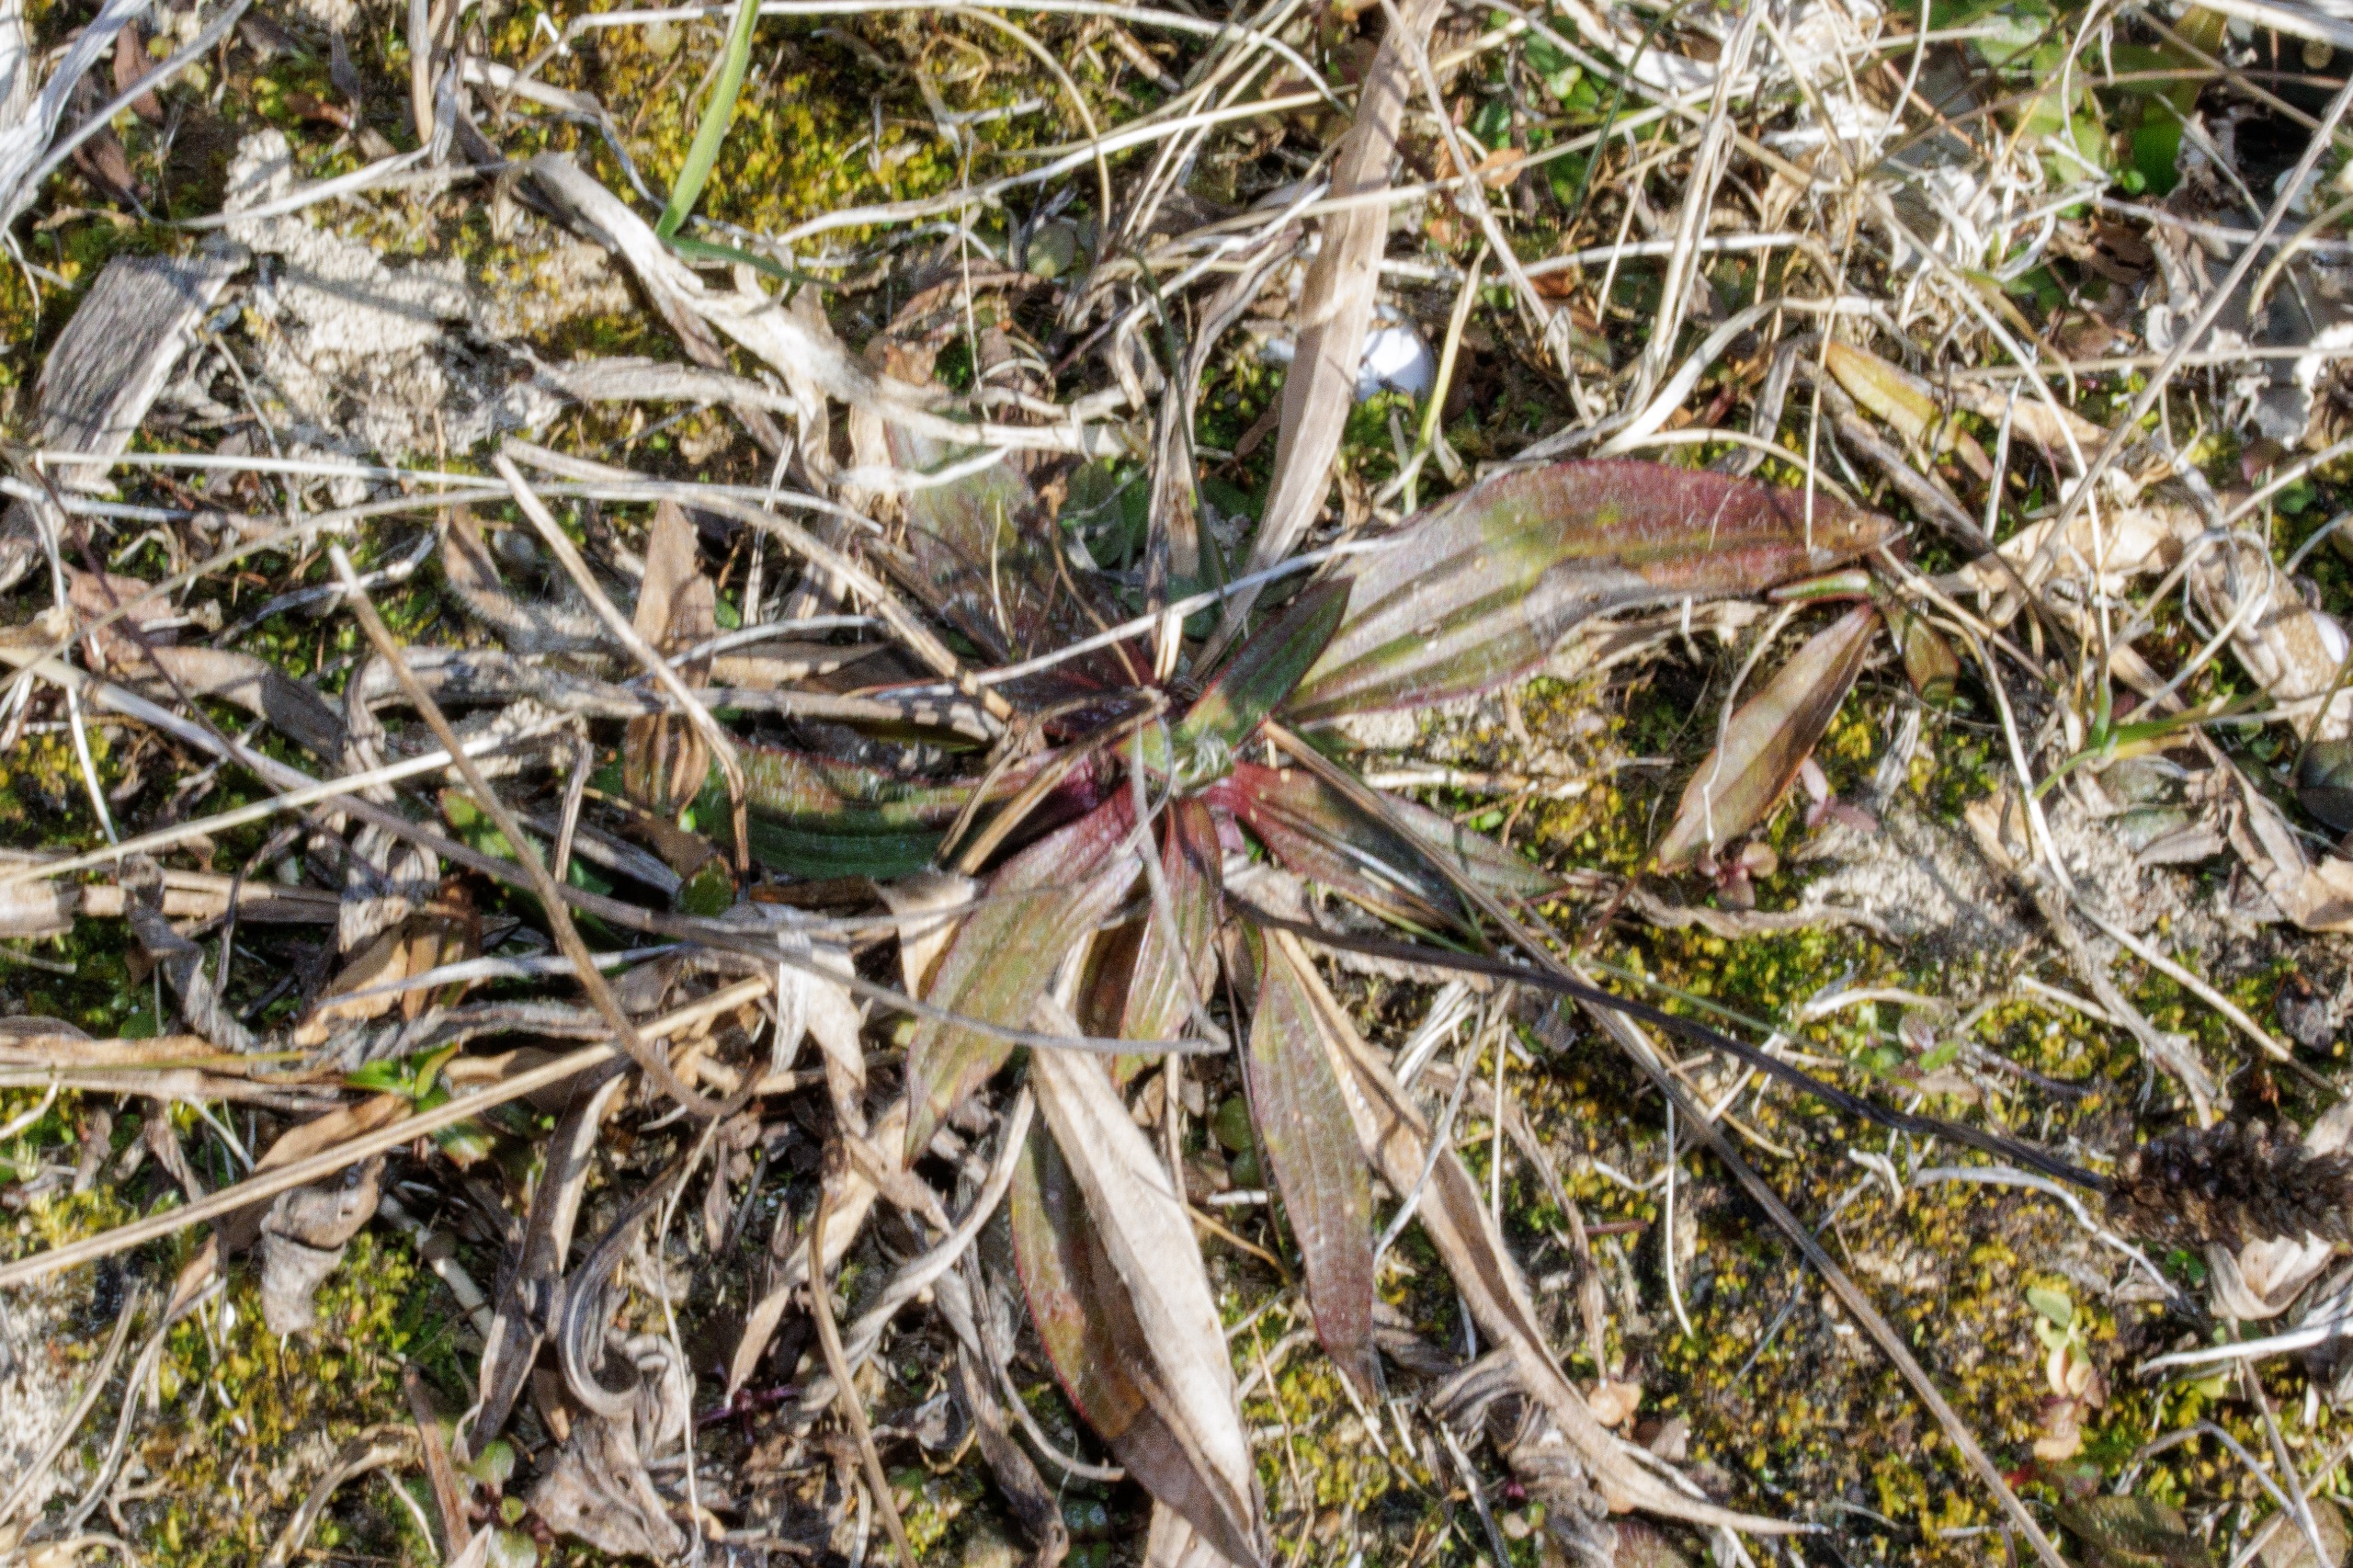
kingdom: Plantae
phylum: Tracheophyta
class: Magnoliopsida
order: Lamiales
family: Plantaginaceae
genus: Plantago
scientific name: Plantago lanceolata
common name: Lancet-vejbred
